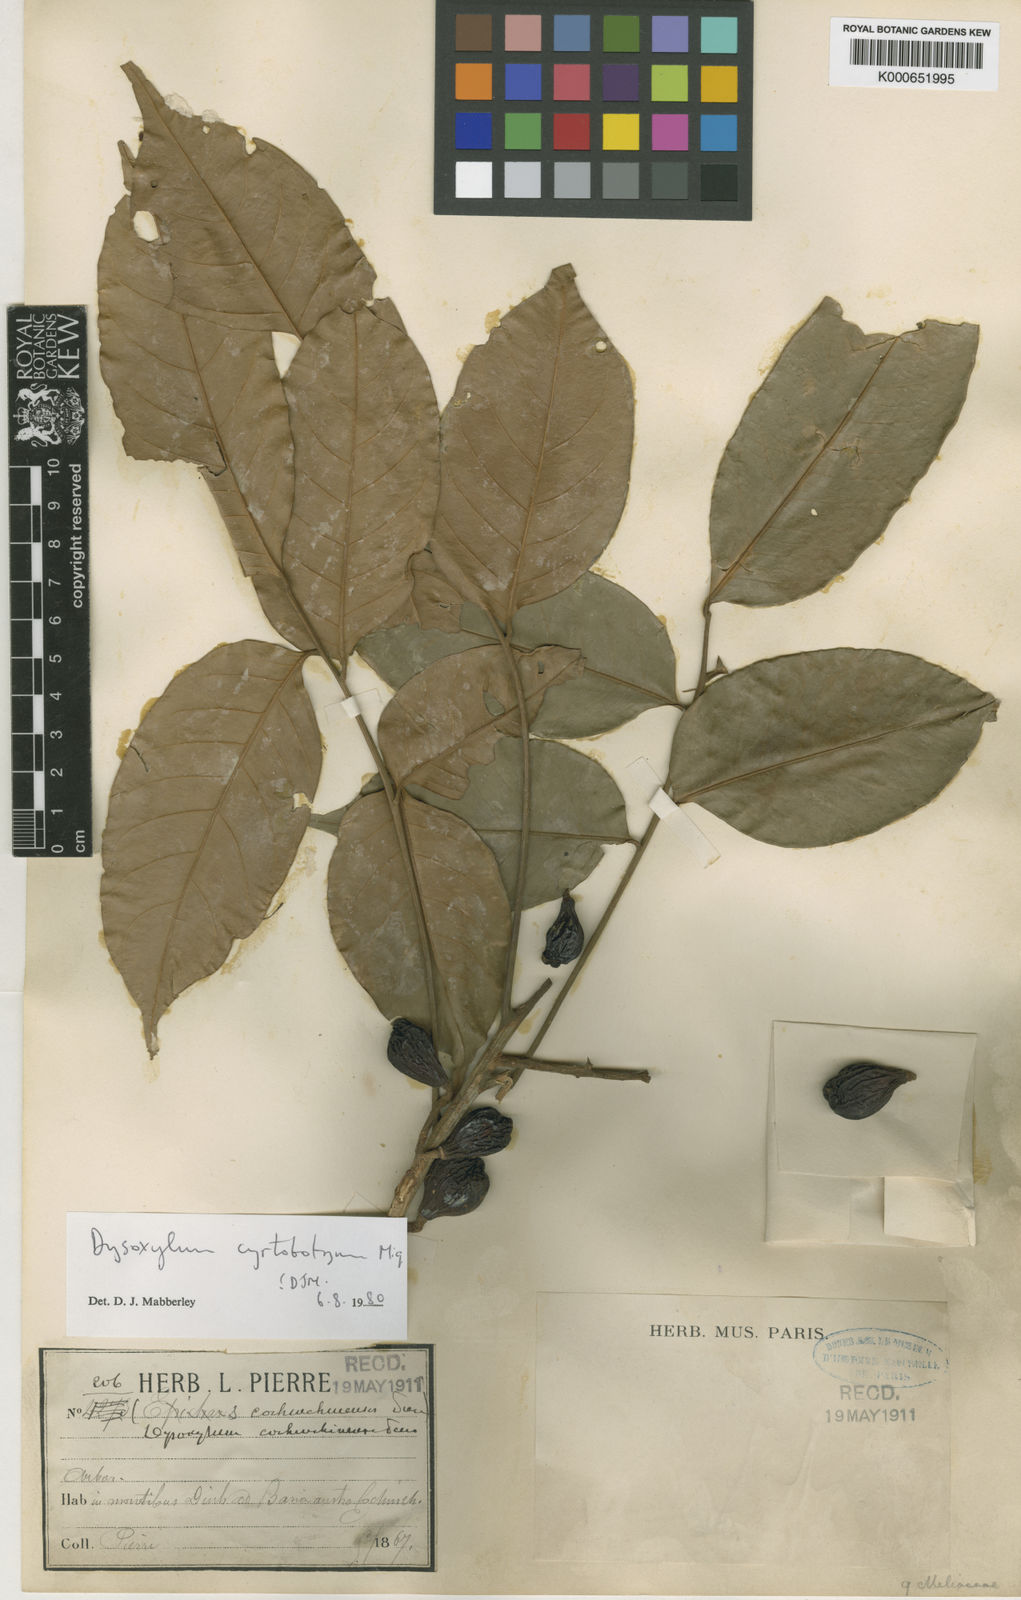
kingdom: Plantae
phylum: Tracheophyta
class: Magnoliopsida
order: Sapindales
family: Meliaceae
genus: Dysoxylum
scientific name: Dysoxylum cyrtobotryum
